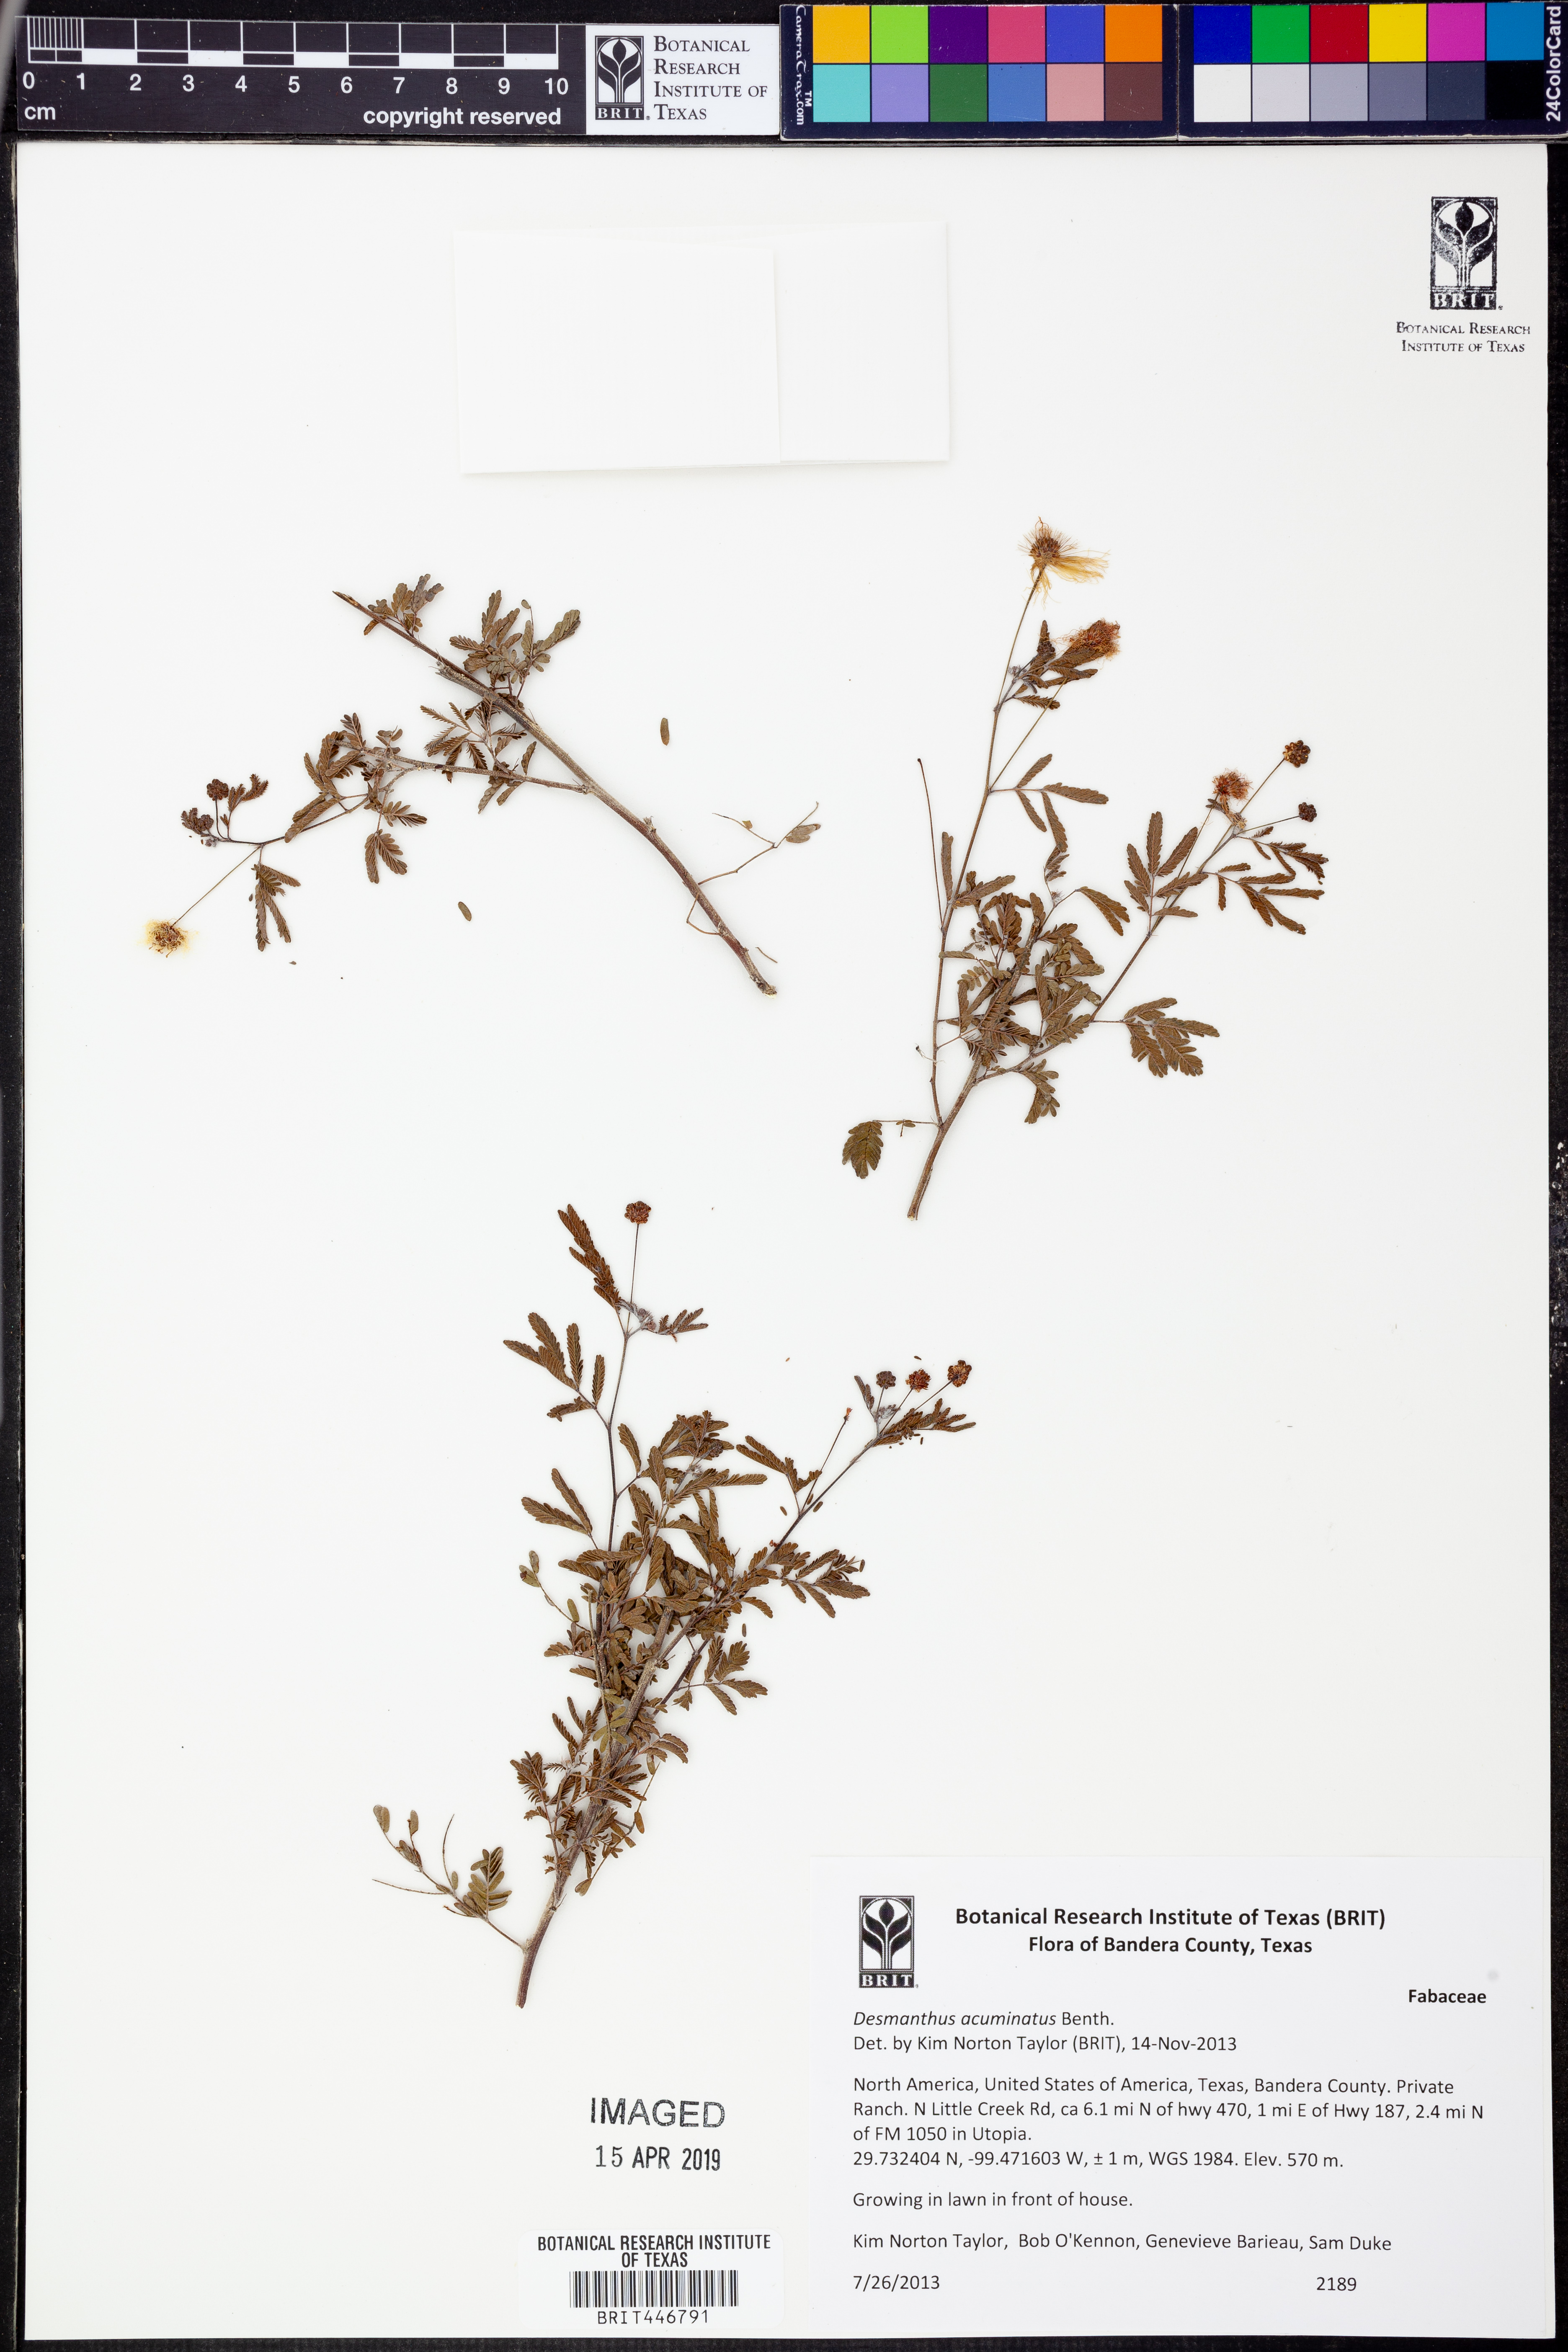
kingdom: Plantae
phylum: Tracheophyta
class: Magnoliopsida
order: Fabales
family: Fabaceae
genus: Desmanthus
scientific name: Desmanthus acuminatus
